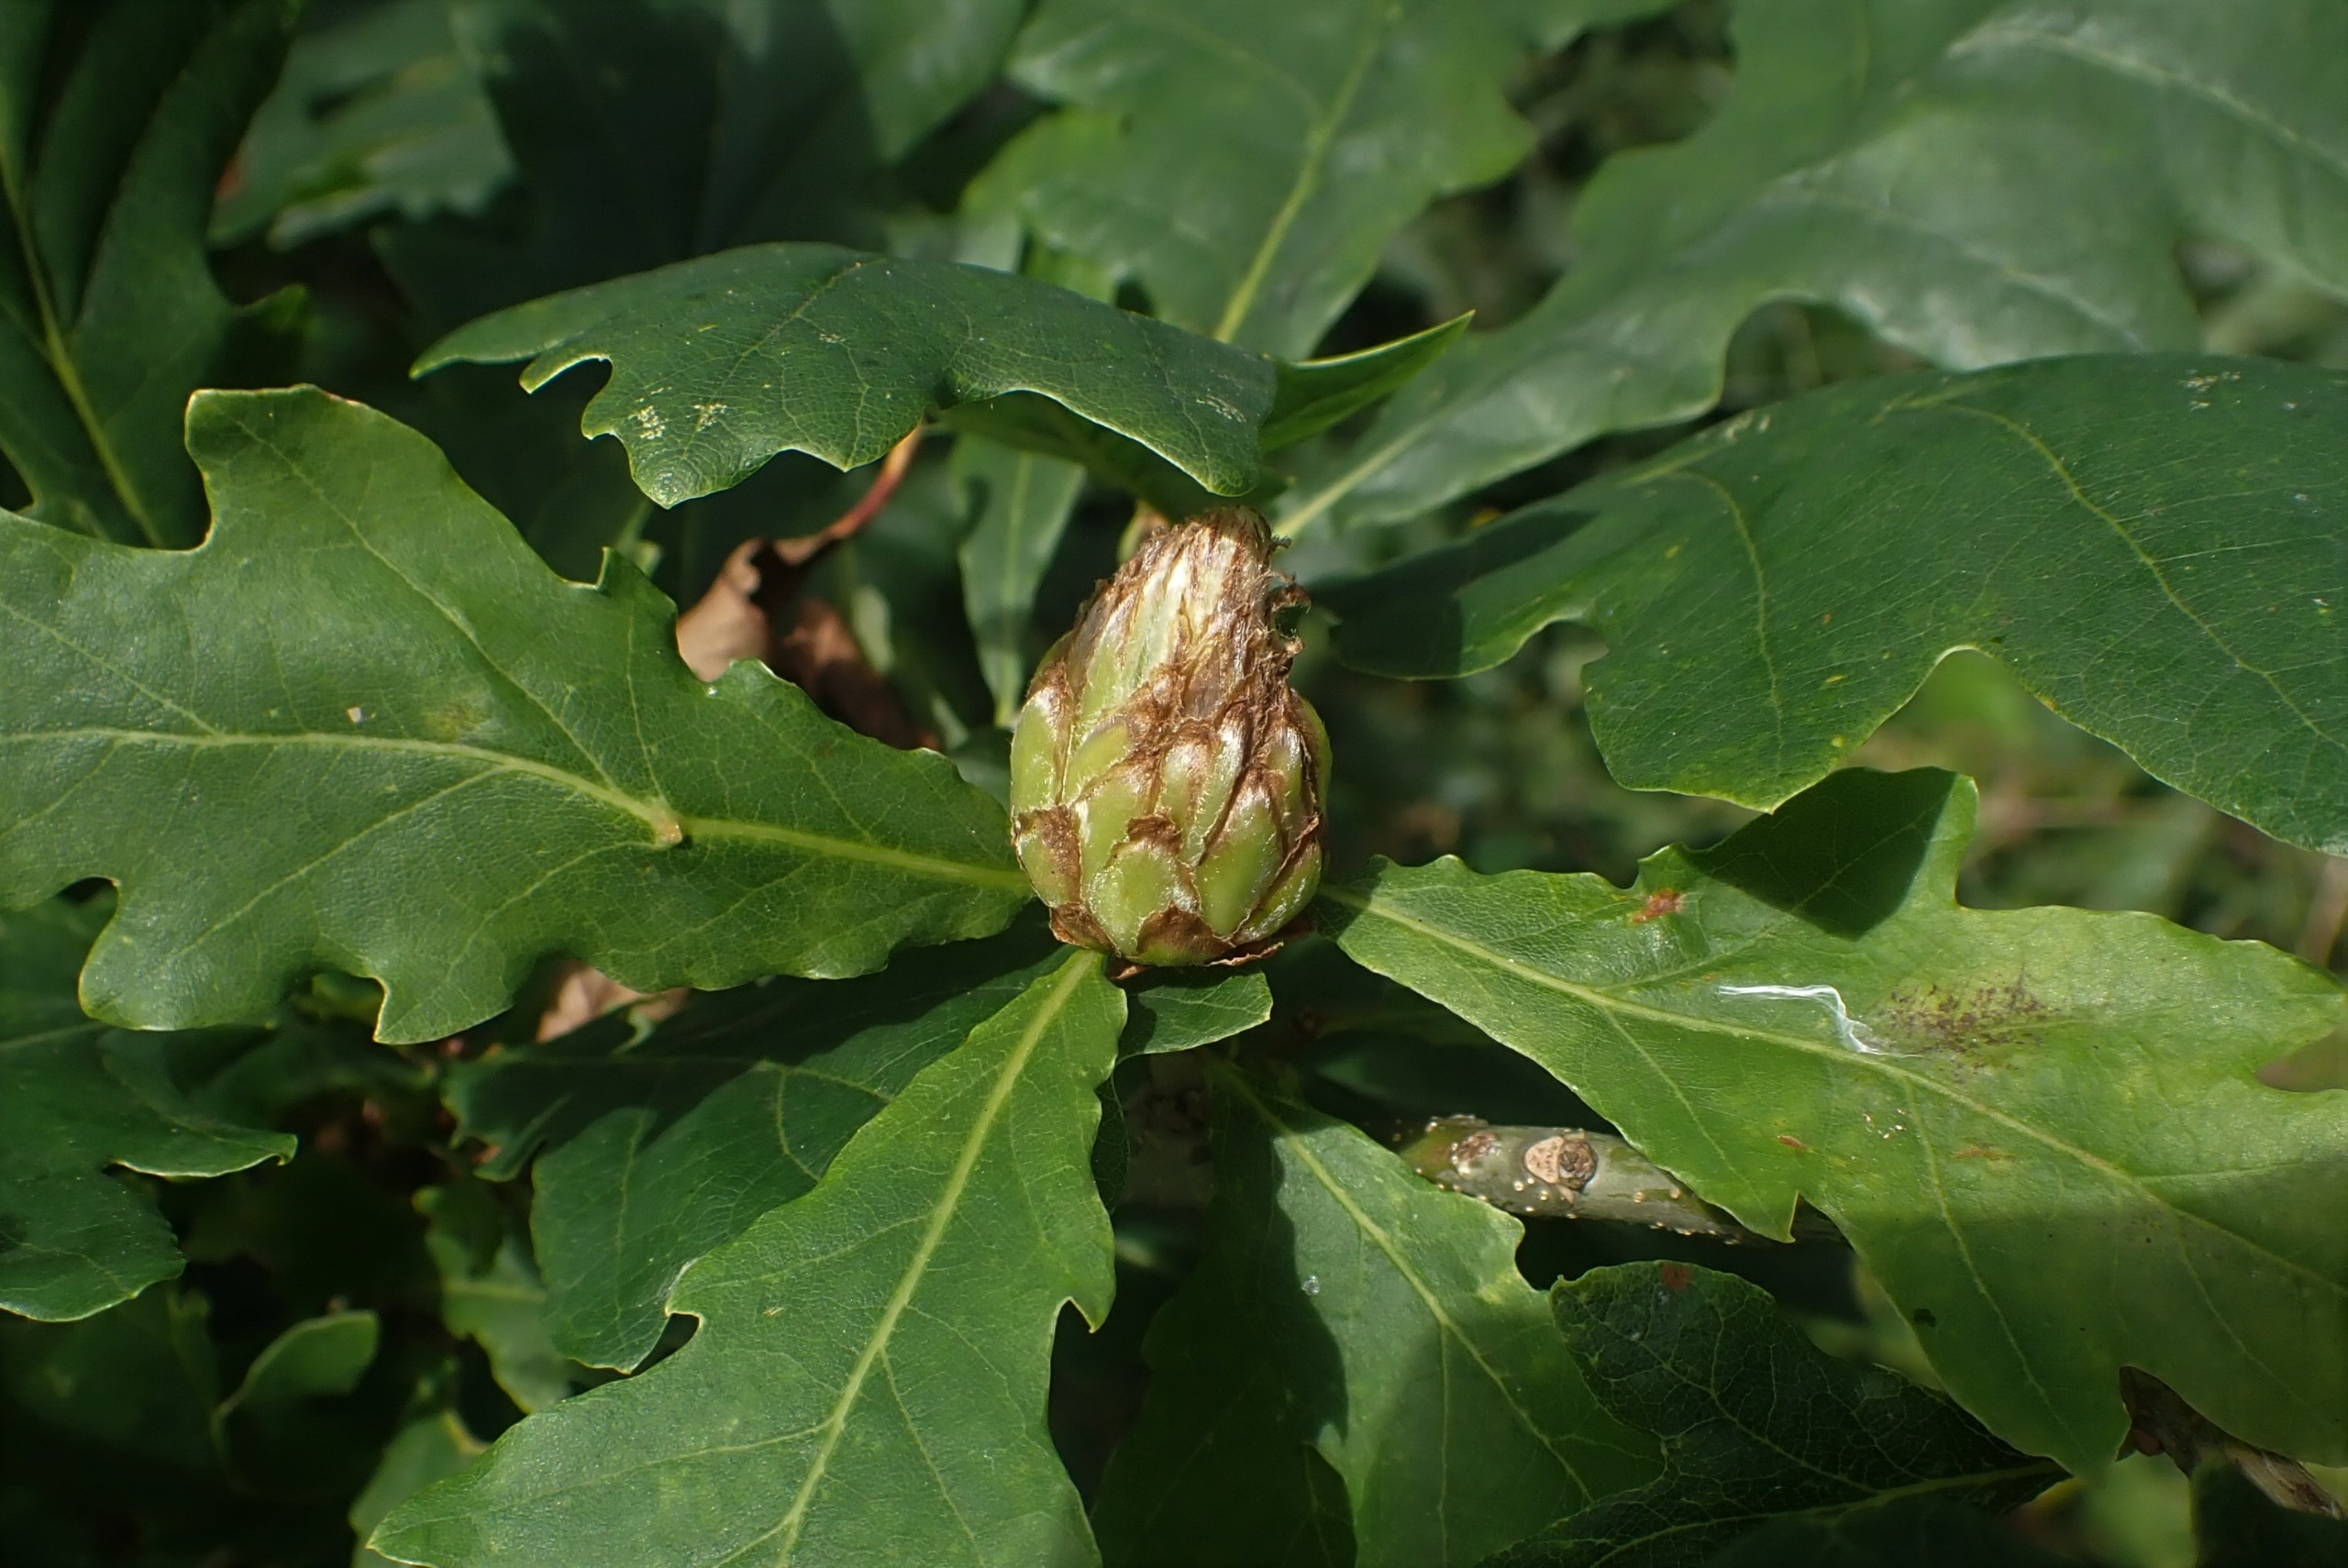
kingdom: Animalia
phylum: Arthropoda
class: Insecta
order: Hymenoptera
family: Cynipidae
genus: Andricus
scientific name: Andricus foecundatrix
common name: Artiskokgalhveps
